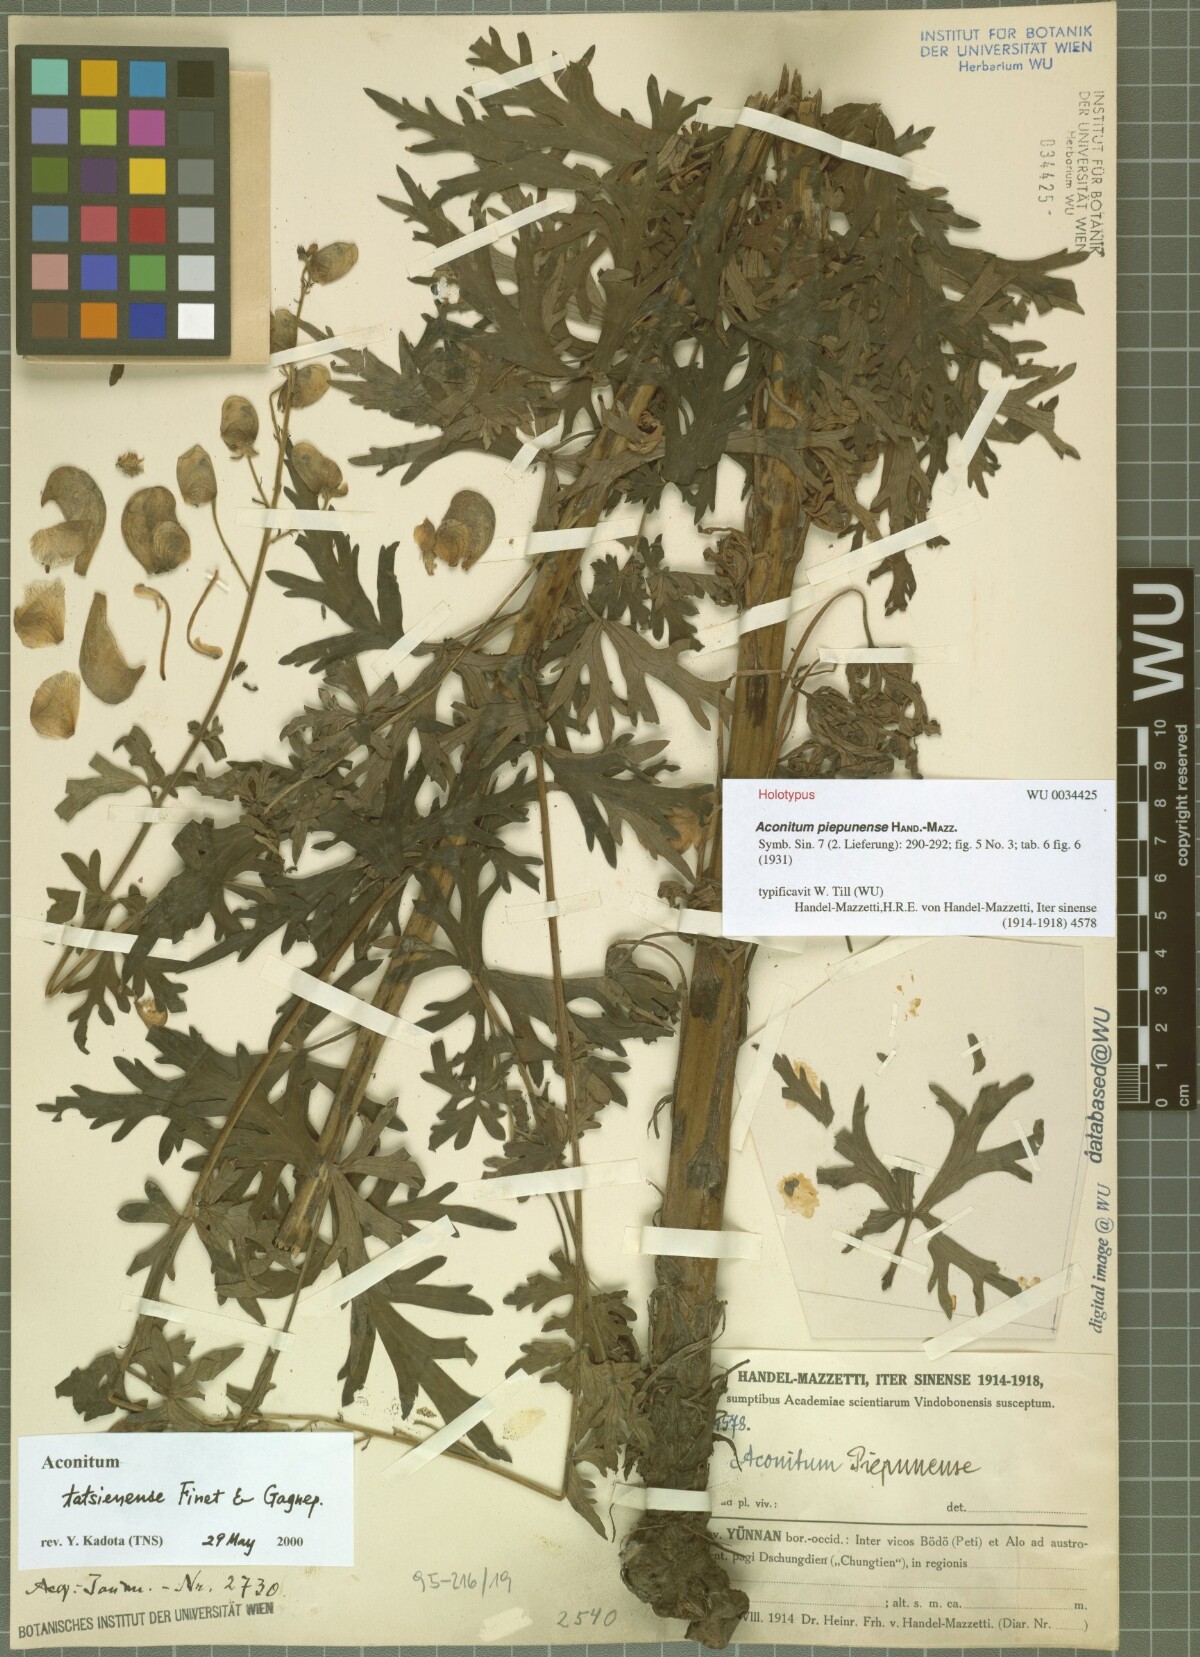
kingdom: Plantae
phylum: Tracheophyta
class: Magnoliopsida
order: Ranunculales
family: Ranunculaceae
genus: Aconitum
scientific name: Aconitum piepunense
